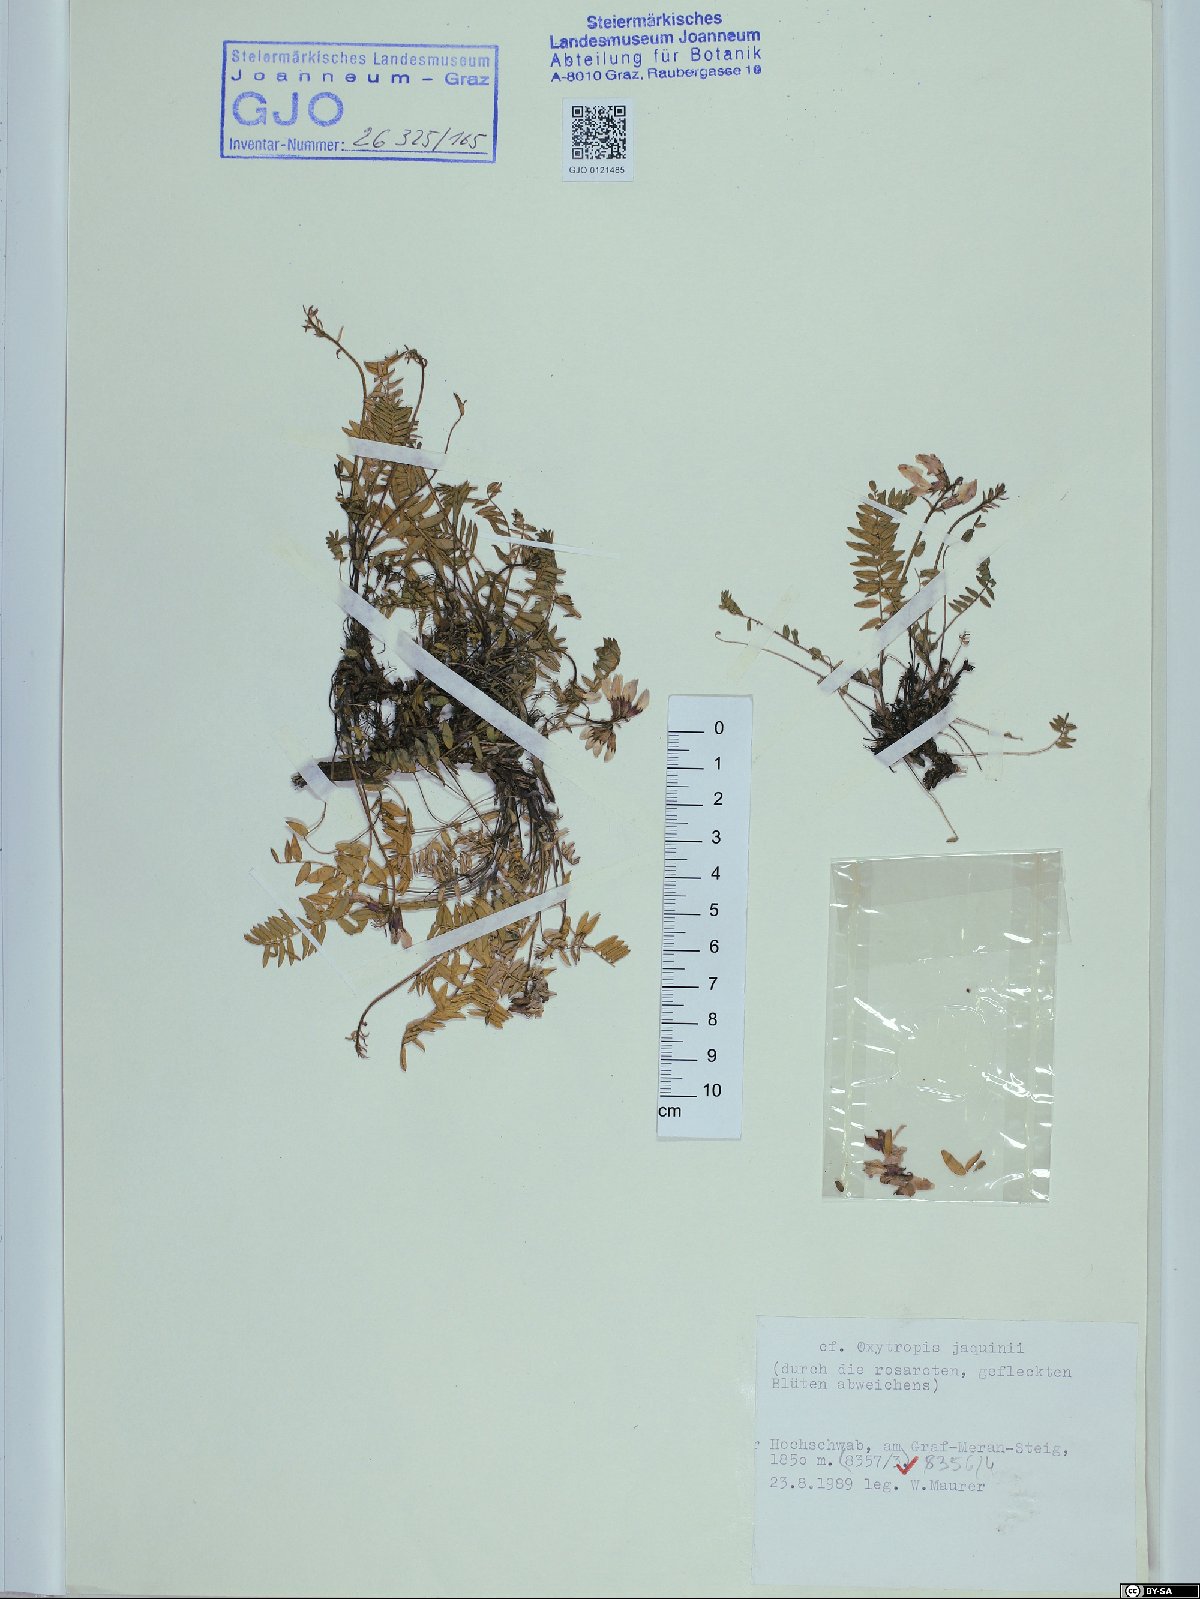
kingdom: Plantae
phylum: Tracheophyta
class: Magnoliopsida
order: Fabales
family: Fabaceae
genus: Oxytropis
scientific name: Oxytropis montana
